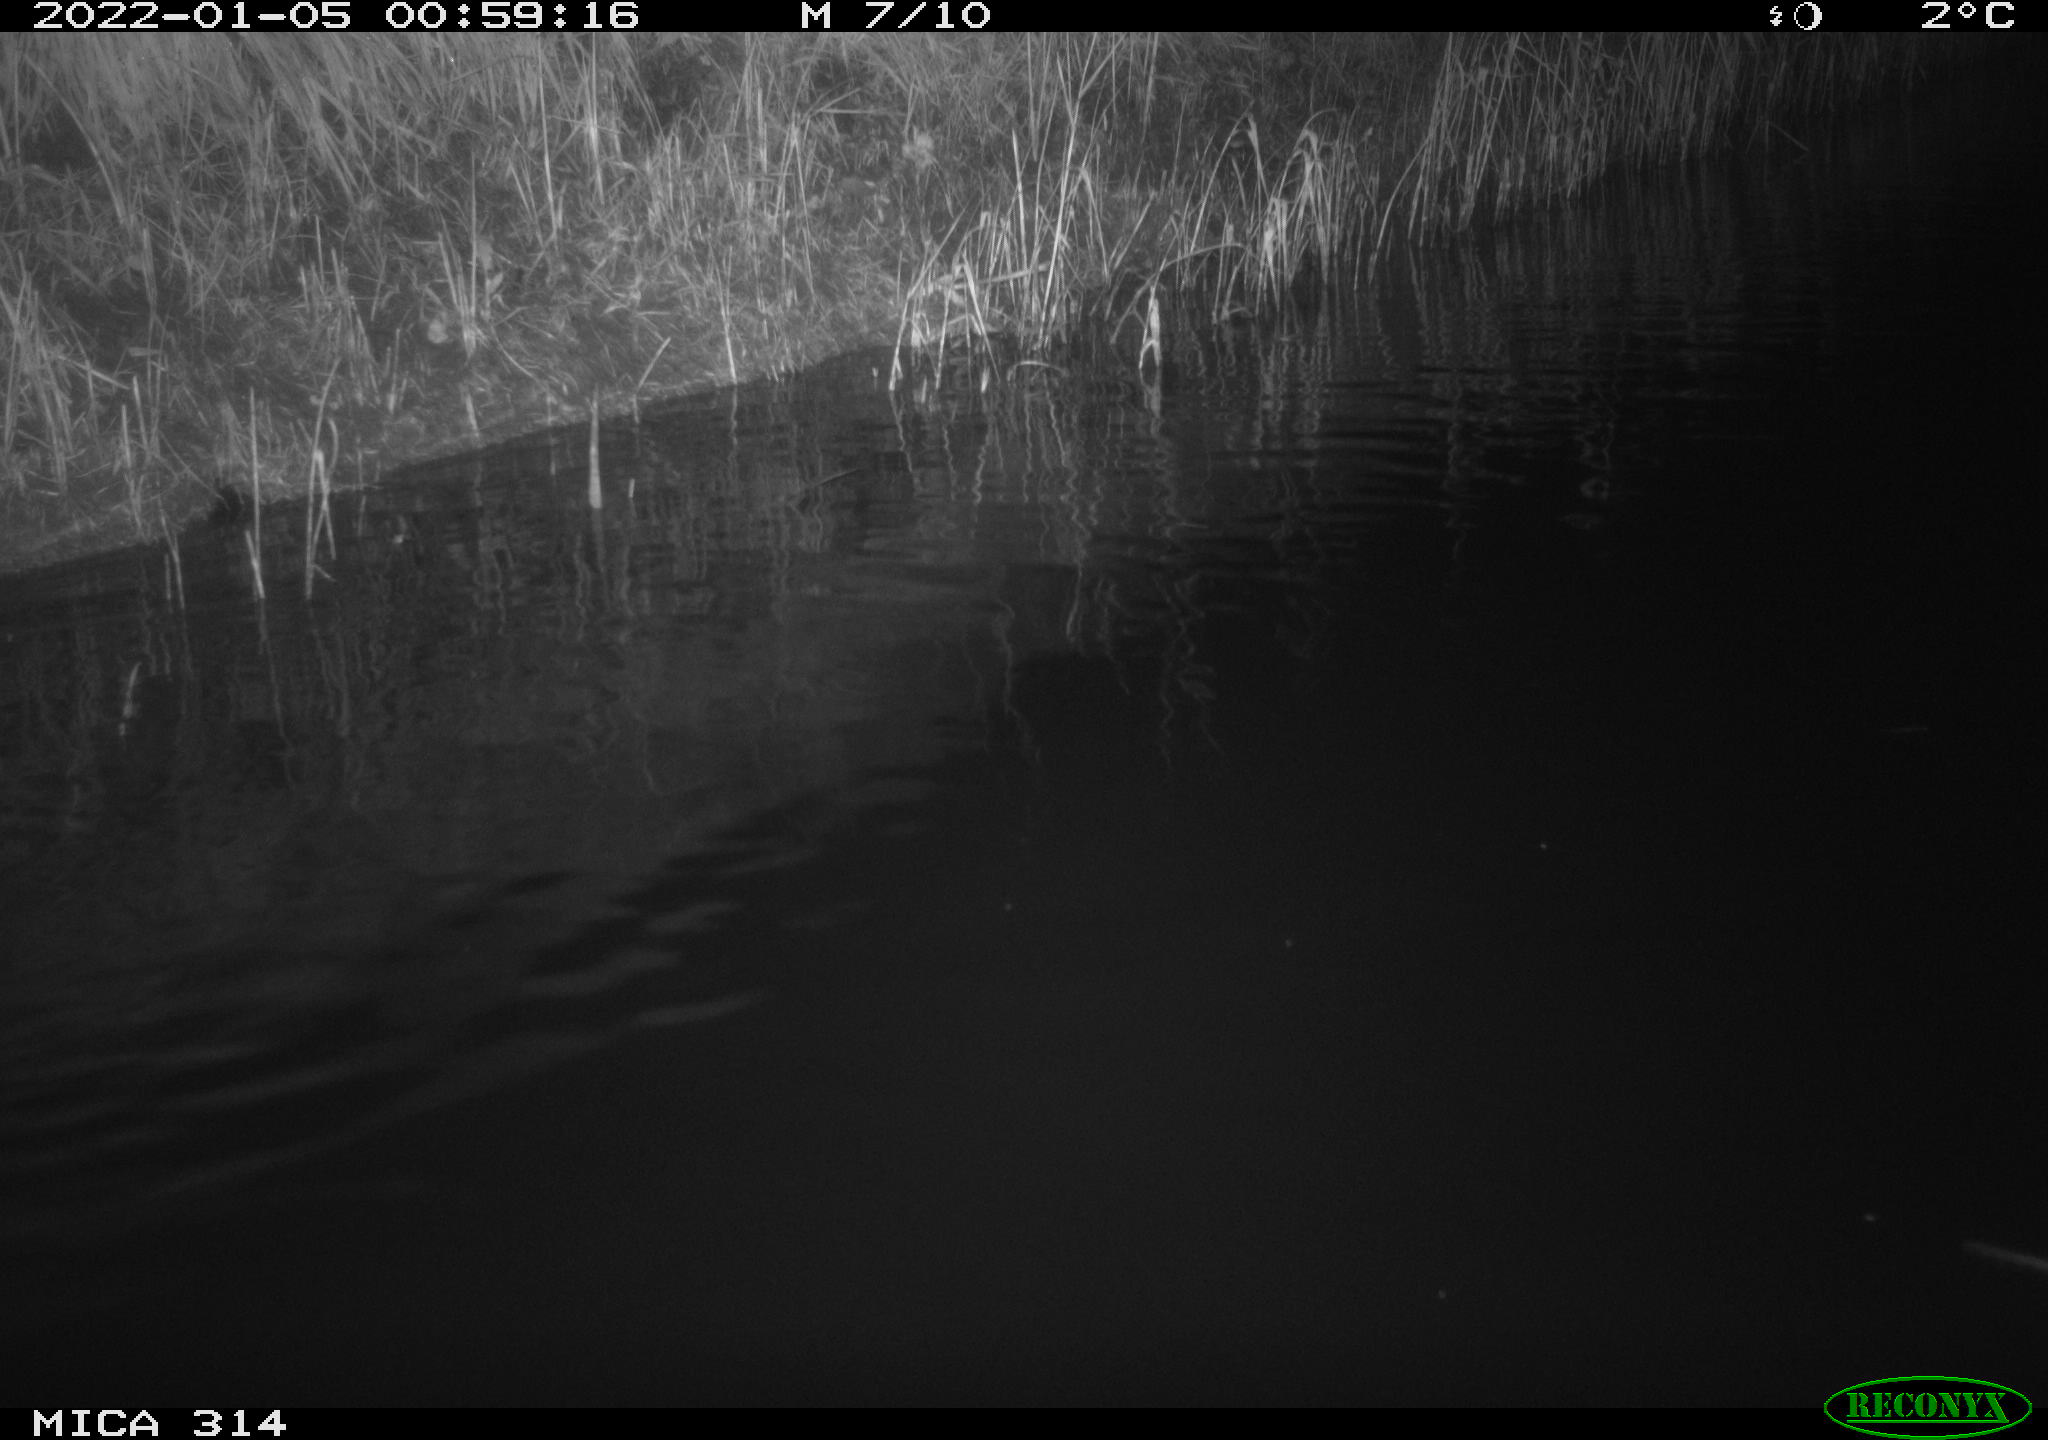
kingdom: Animalia
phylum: Chordata
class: Mammalia
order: Rodentia
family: Muridae
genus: Rattus
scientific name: Rattus norvegicus
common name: Brown rat
